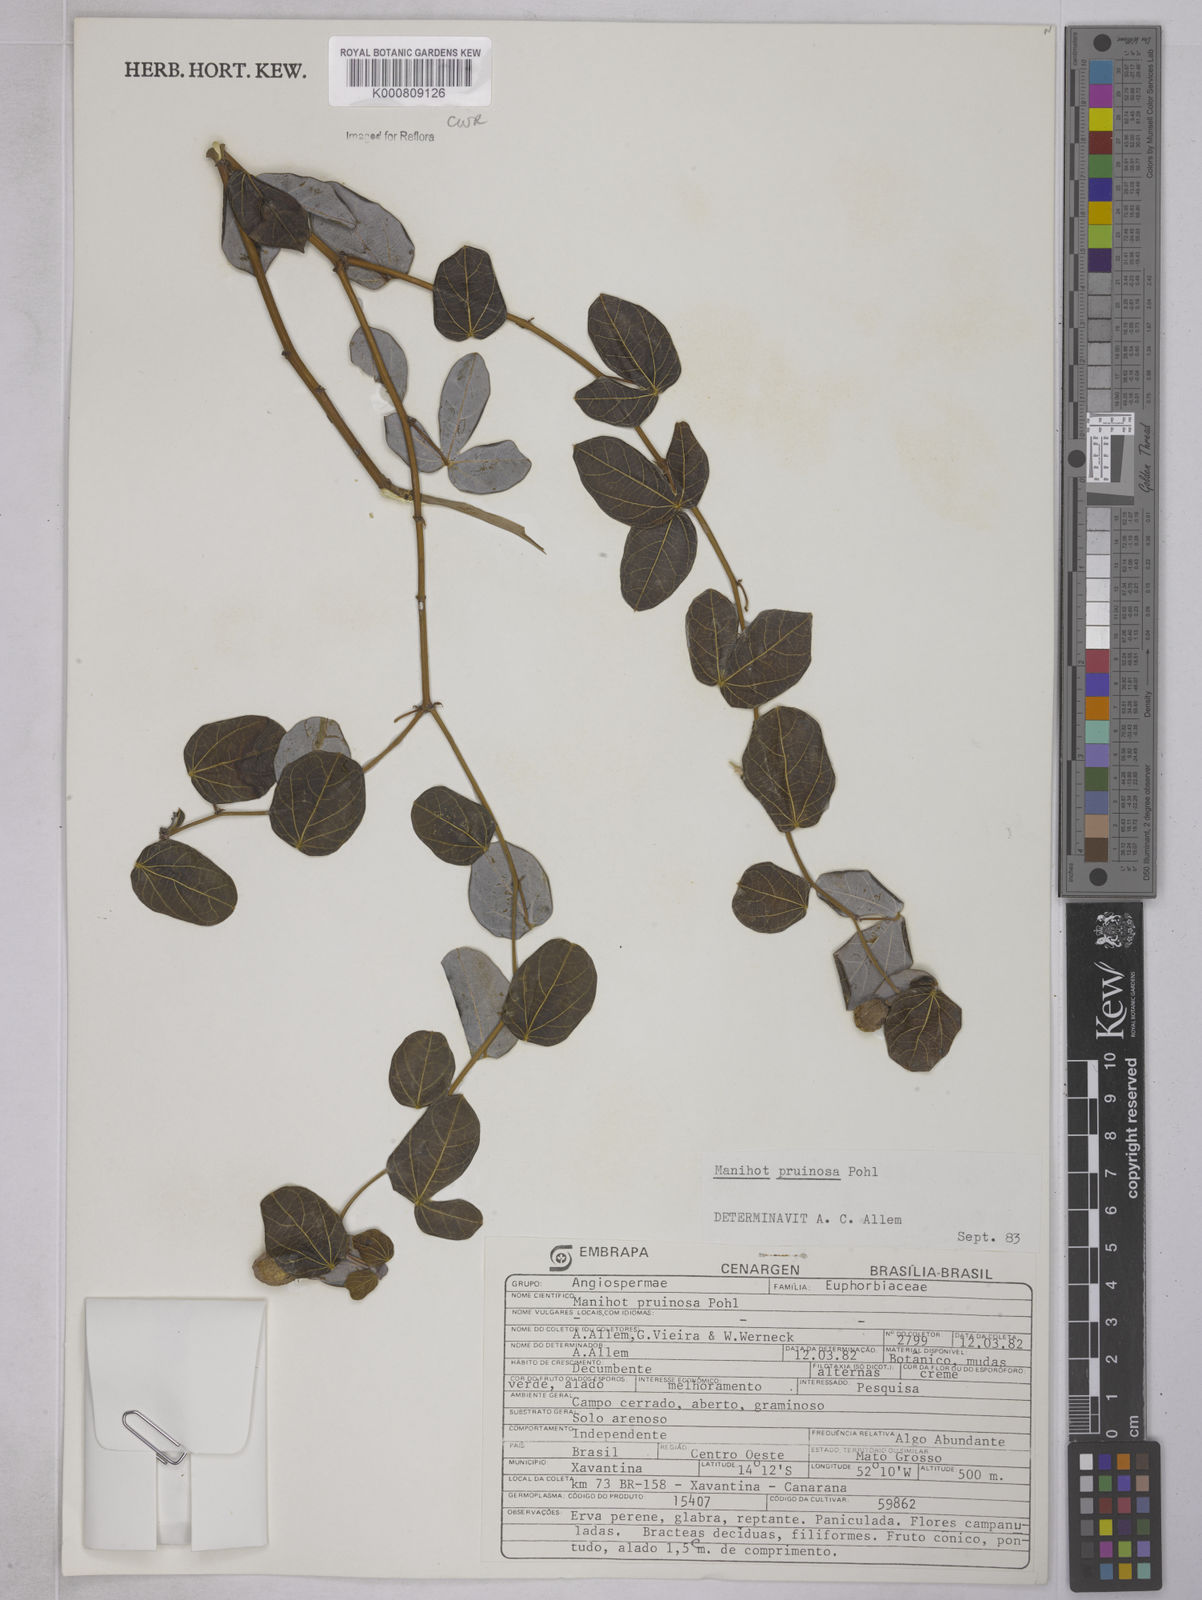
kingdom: Plantae
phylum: Tracheophyta
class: Magnoliopsida
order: Malpighiales
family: Euphorbiaceae
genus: Manihot
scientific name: Manihot pruinosa
